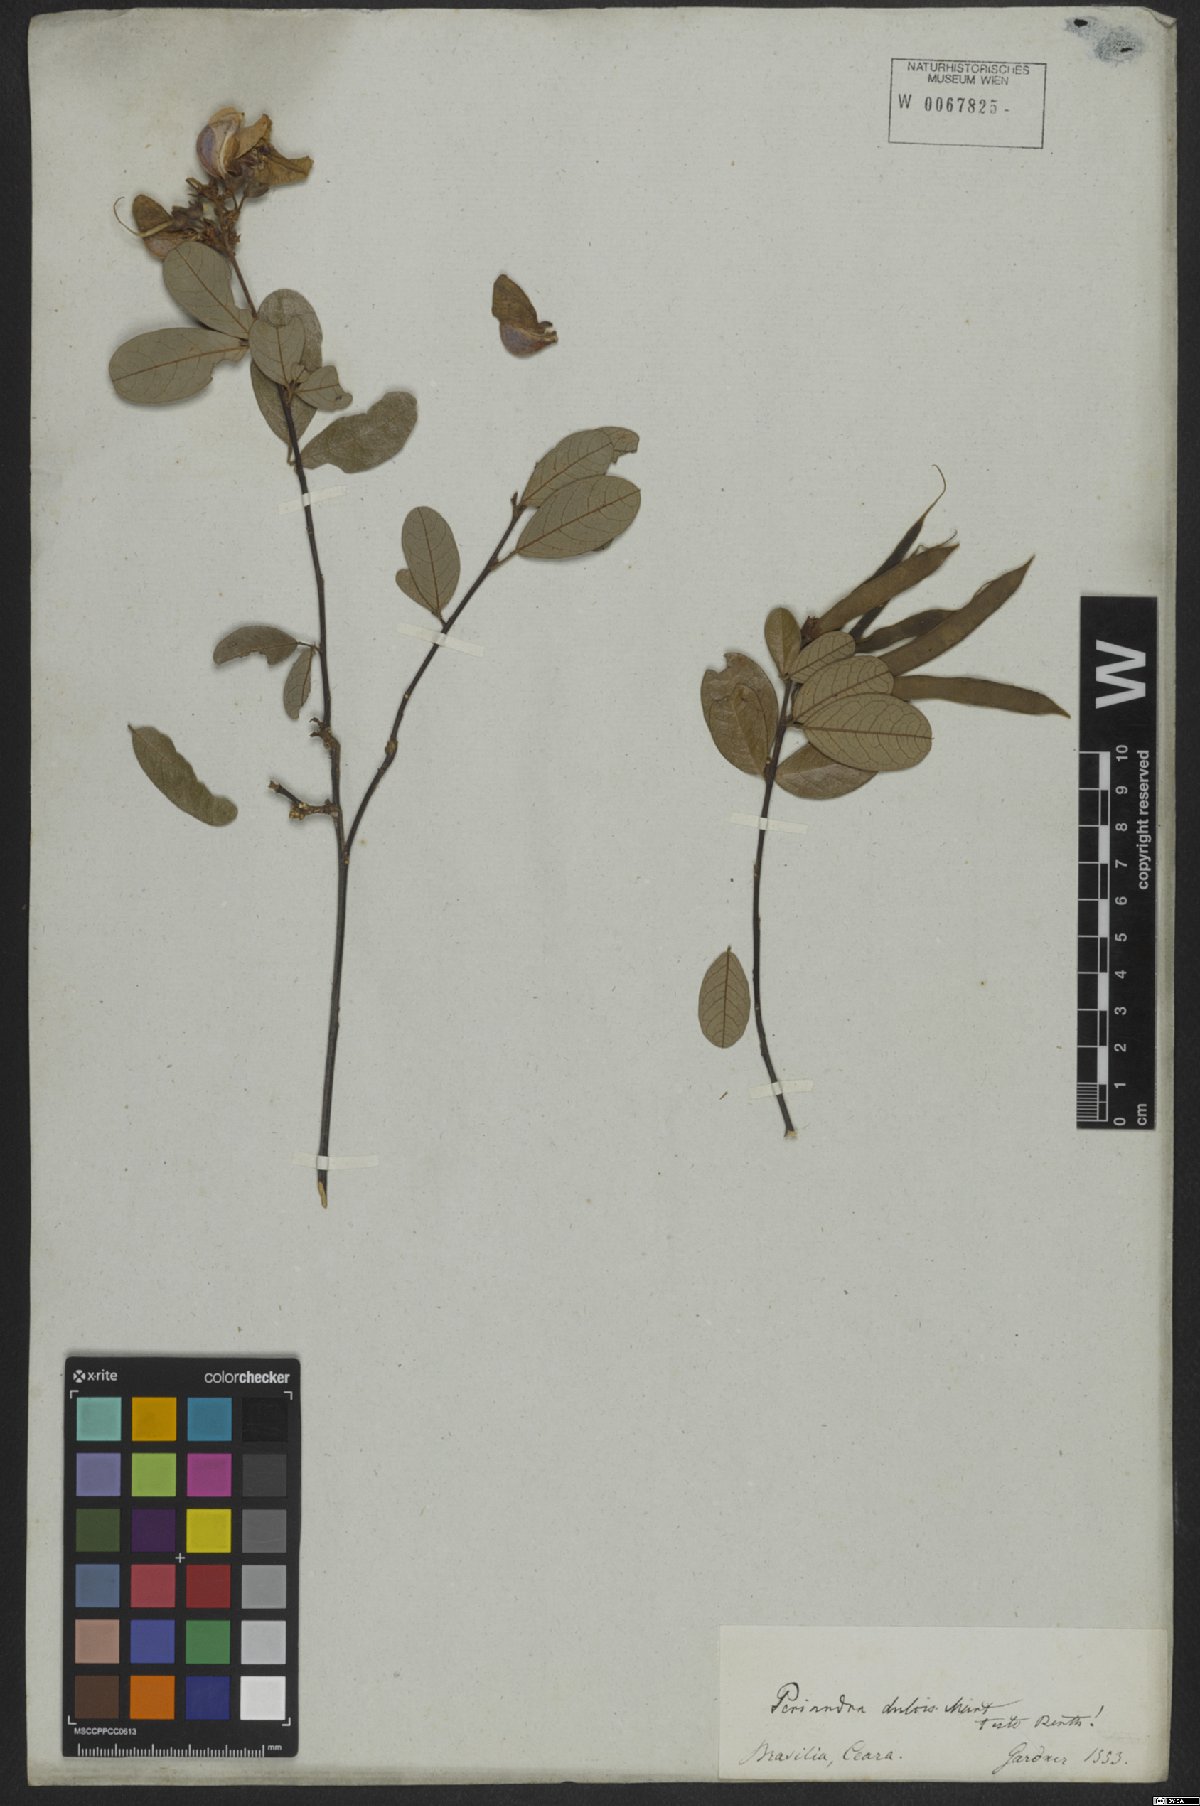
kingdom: Plantae
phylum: Tracheophyta
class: Magnoliopsida
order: Fabales
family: Fabaceae
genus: Periandra
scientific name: Periandra mediterranea
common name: Brazilian licorice
